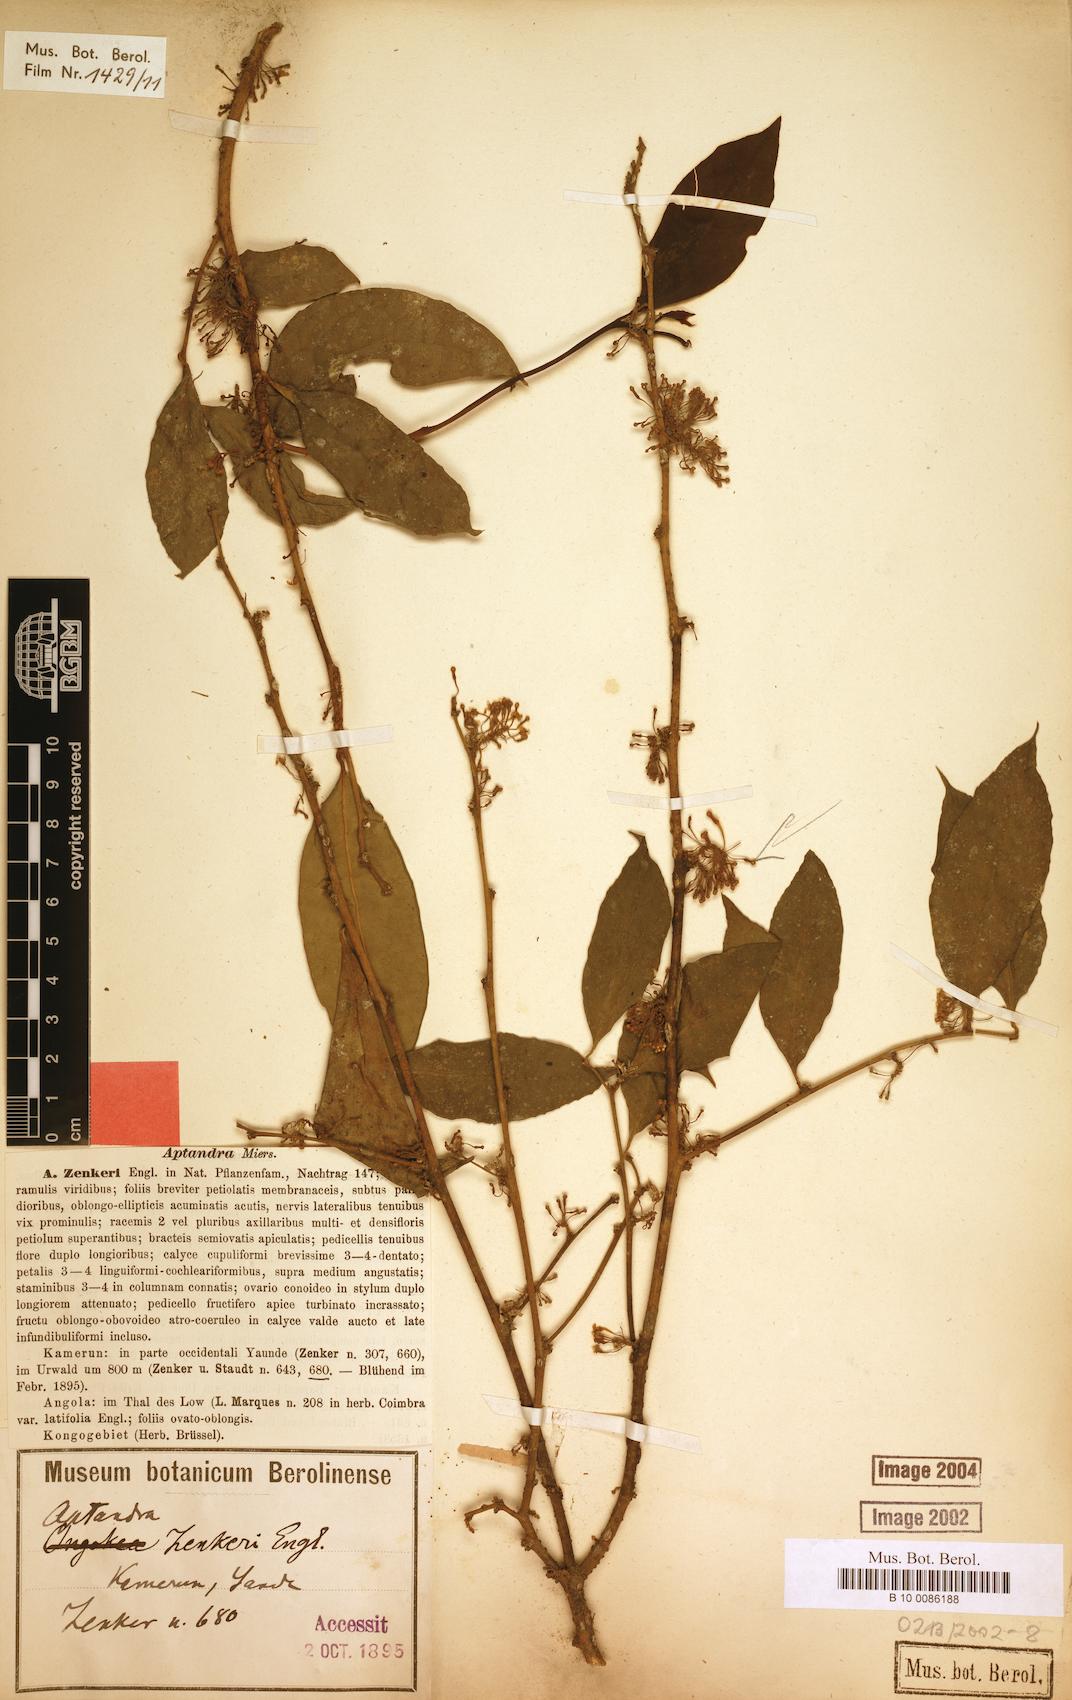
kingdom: Plantae
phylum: Tracheophyta
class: Magnoliopsida
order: Santalales
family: Aptandraceae
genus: Aptandra
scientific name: Aptandra zenkeri
